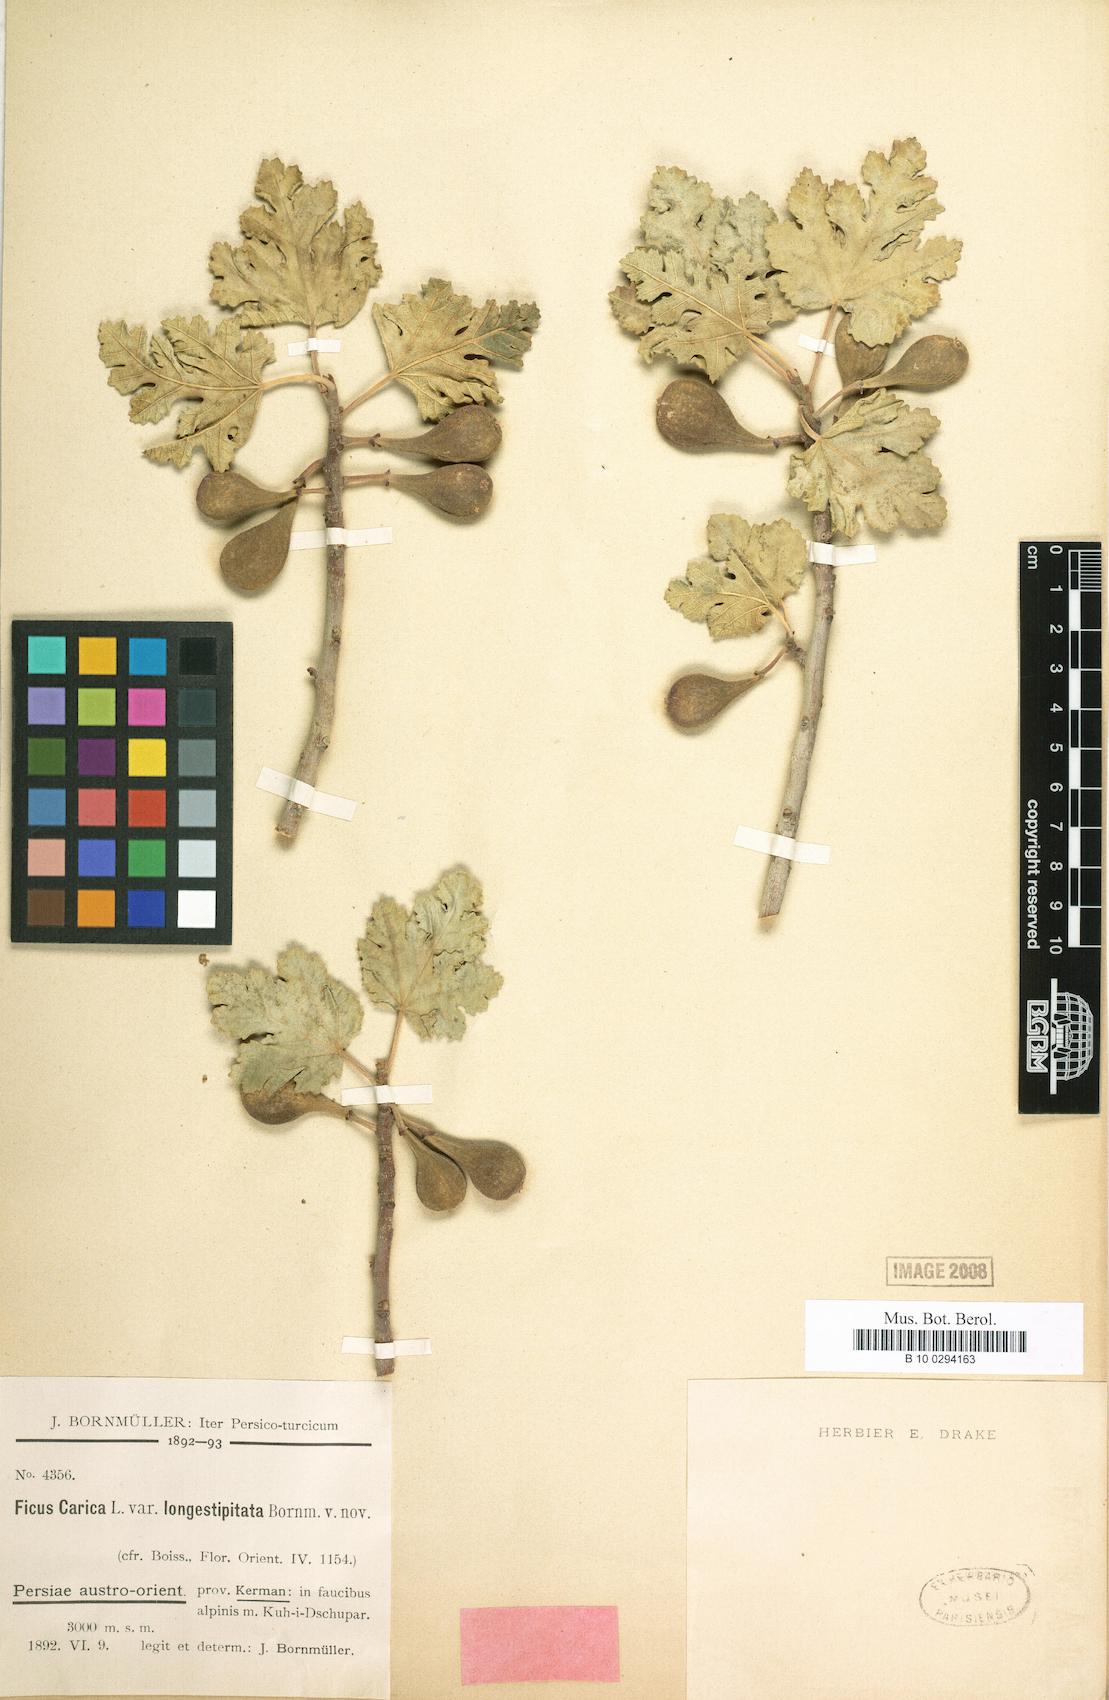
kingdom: Plantae
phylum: Tracheophyta
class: Magnoliopsida
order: Rosales
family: Moraceae
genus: Ficus
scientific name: Ficus carica
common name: Fig
